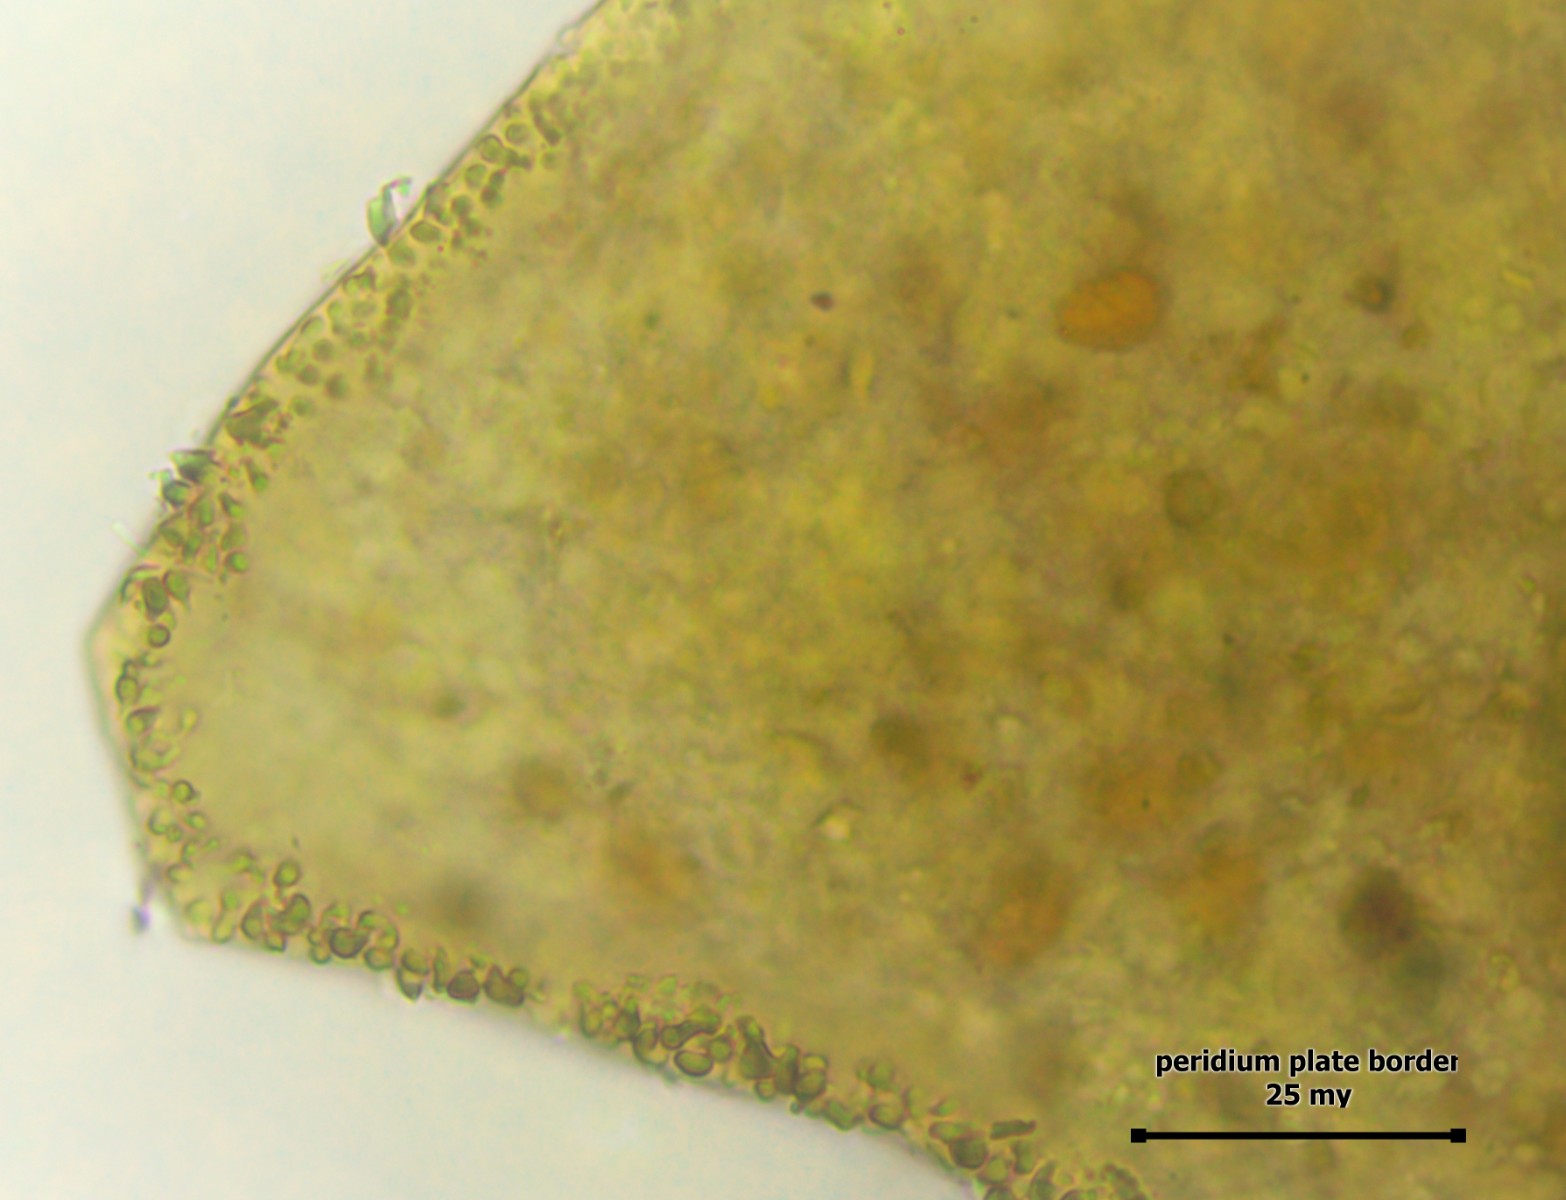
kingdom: Protozoa
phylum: Mycetozoa
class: Myxomycetes
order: Cribrariales
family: Liceaceae
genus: Licea
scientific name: Licea pusilla
